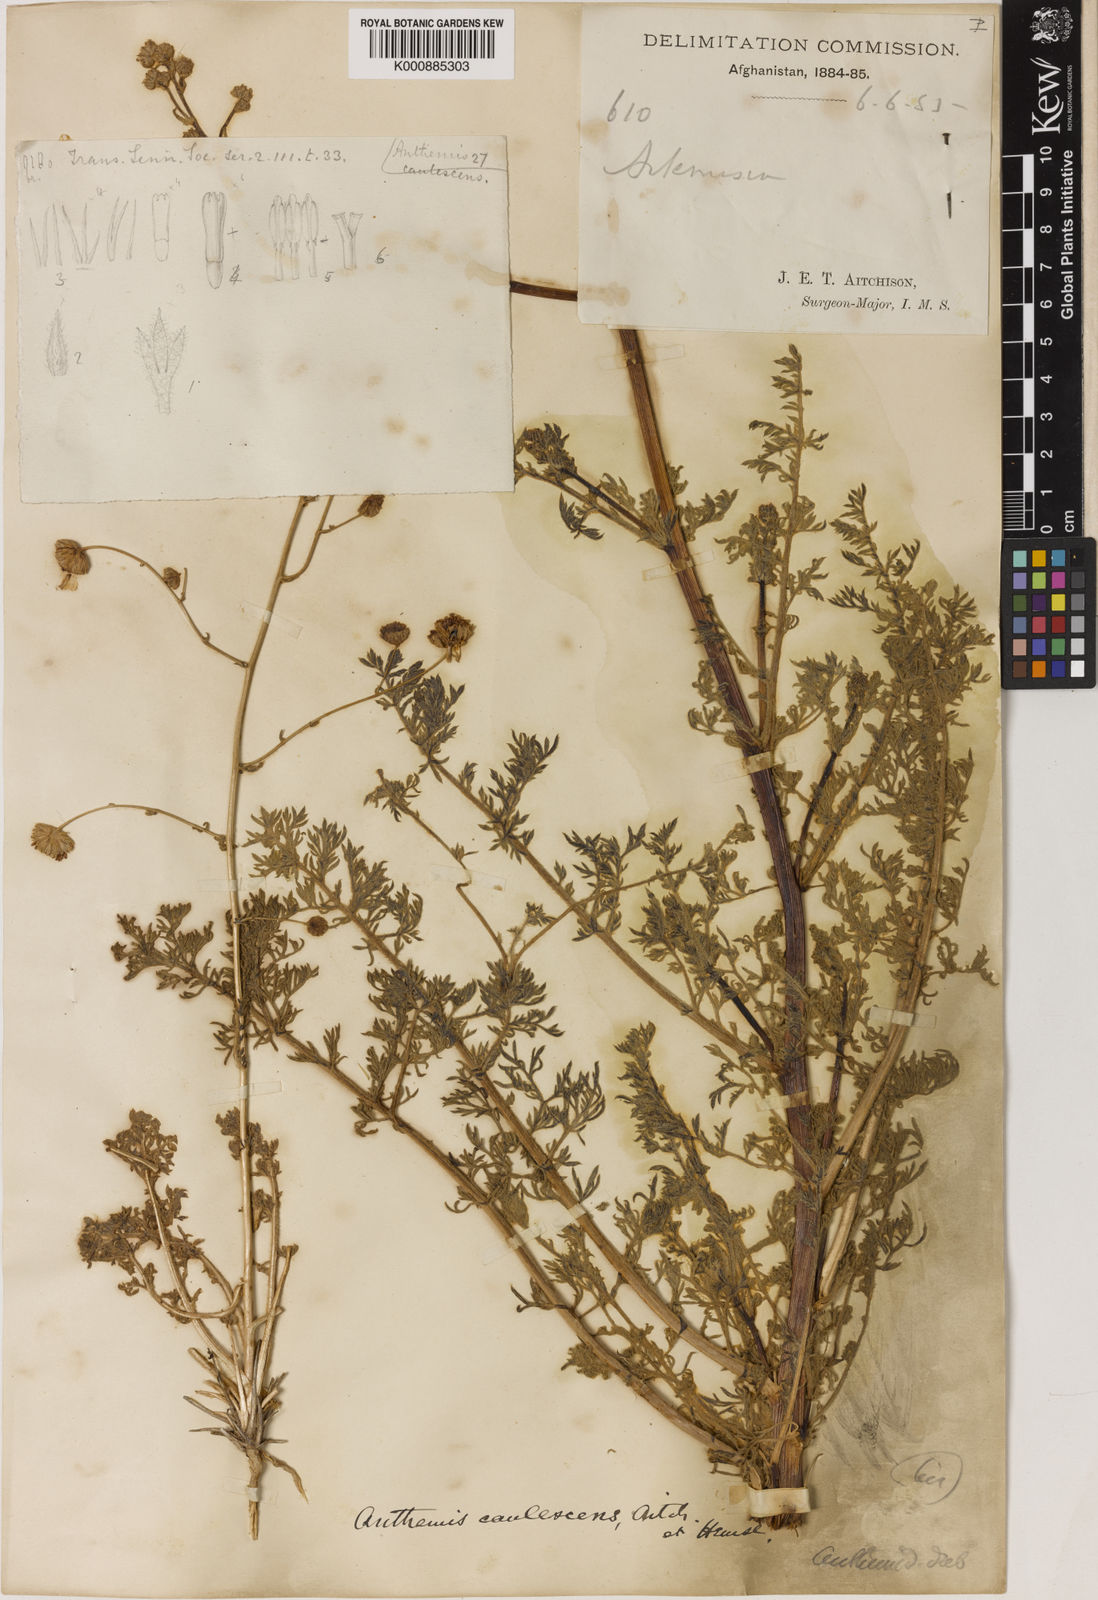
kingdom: Plantae
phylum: Tracheophyta
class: Magnoliopsida
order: Asterales
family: Asteraceae
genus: Sclerorhachis
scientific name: Sclerorhachis caulescens
